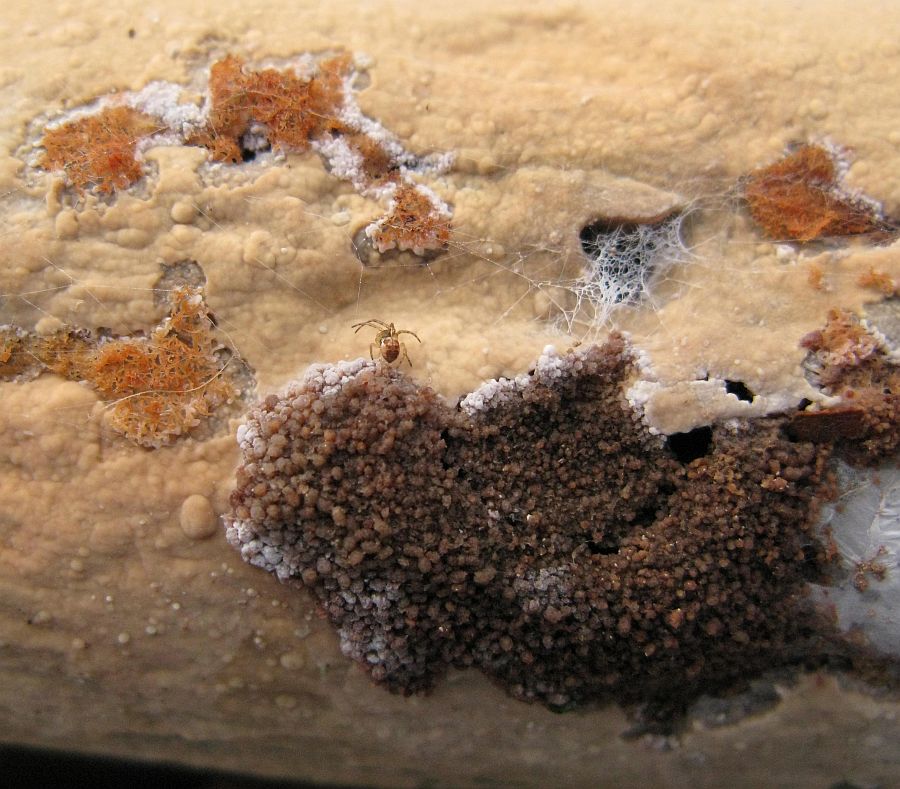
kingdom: Fungi
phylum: Basidiomycota
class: Agaricomycetes
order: Russulales
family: Stereaceae
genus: Gloeocystidiellum
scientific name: Gloeocystidiellum porosum
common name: mælkehvid olieskind
